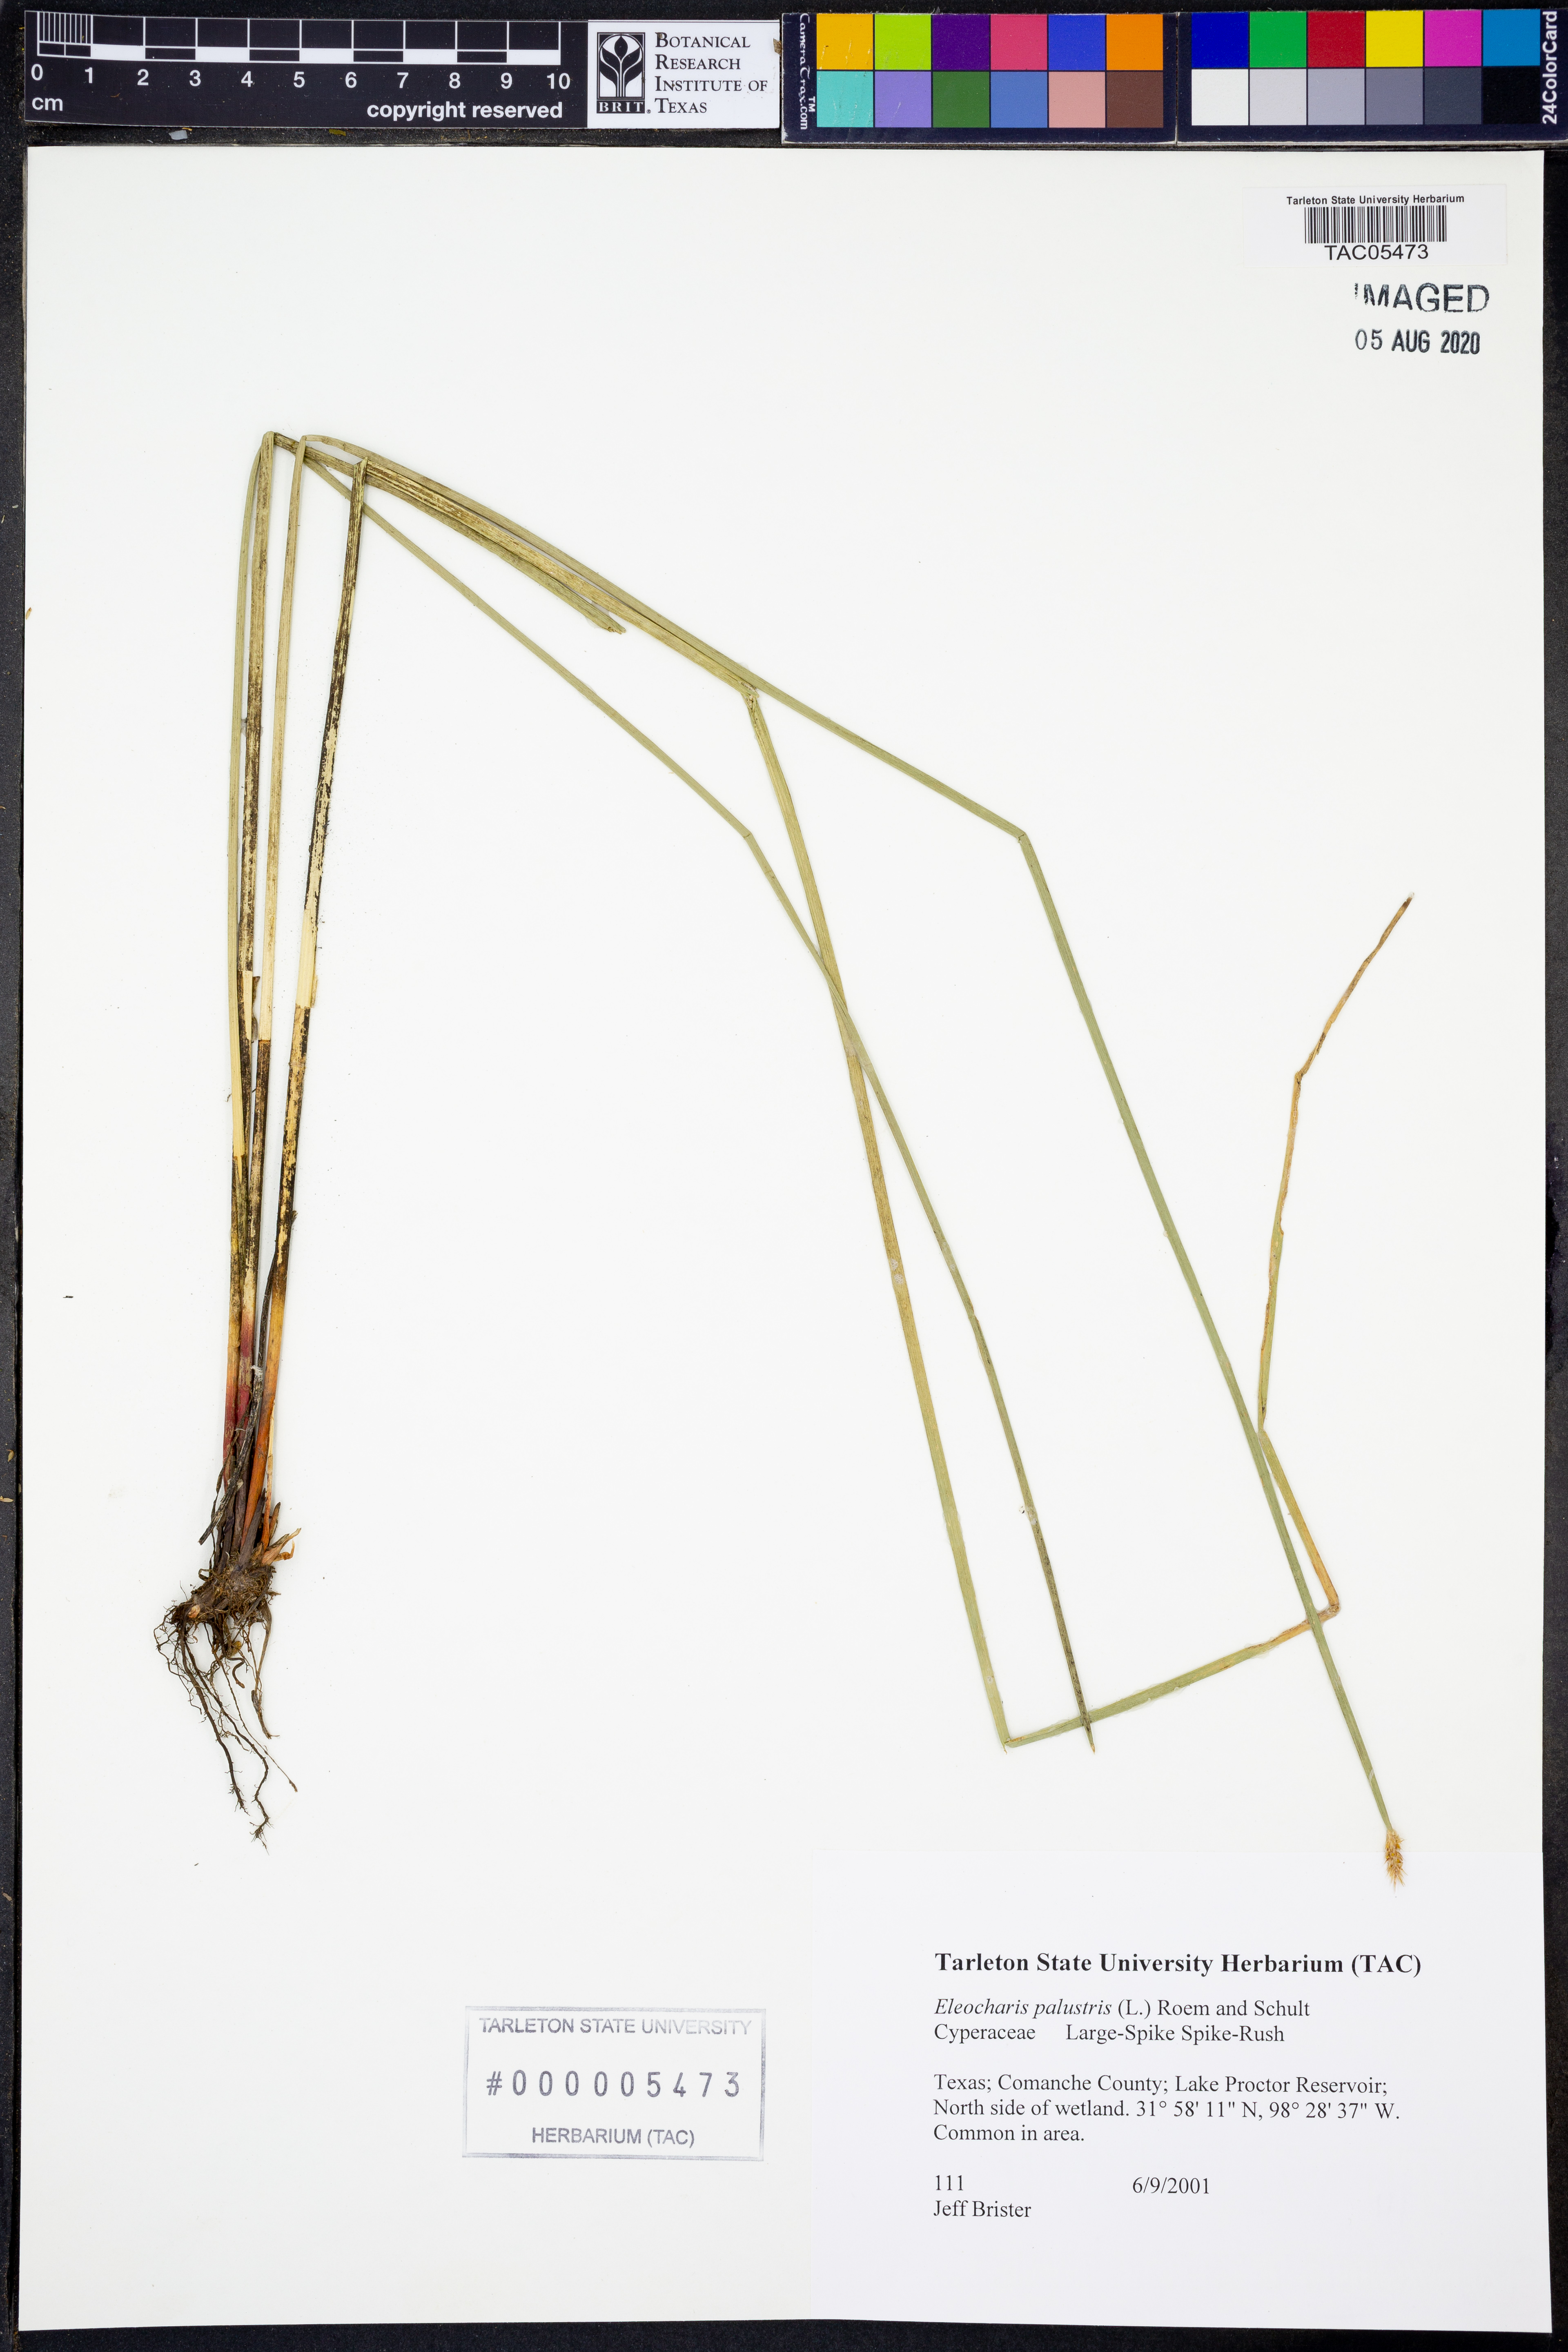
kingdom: Plantae
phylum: Tracheophyta
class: Liliopsida
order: Poales
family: Cyperaceae
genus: Eleocharis
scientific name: Eleocharis palustris
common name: Common spike-rush
